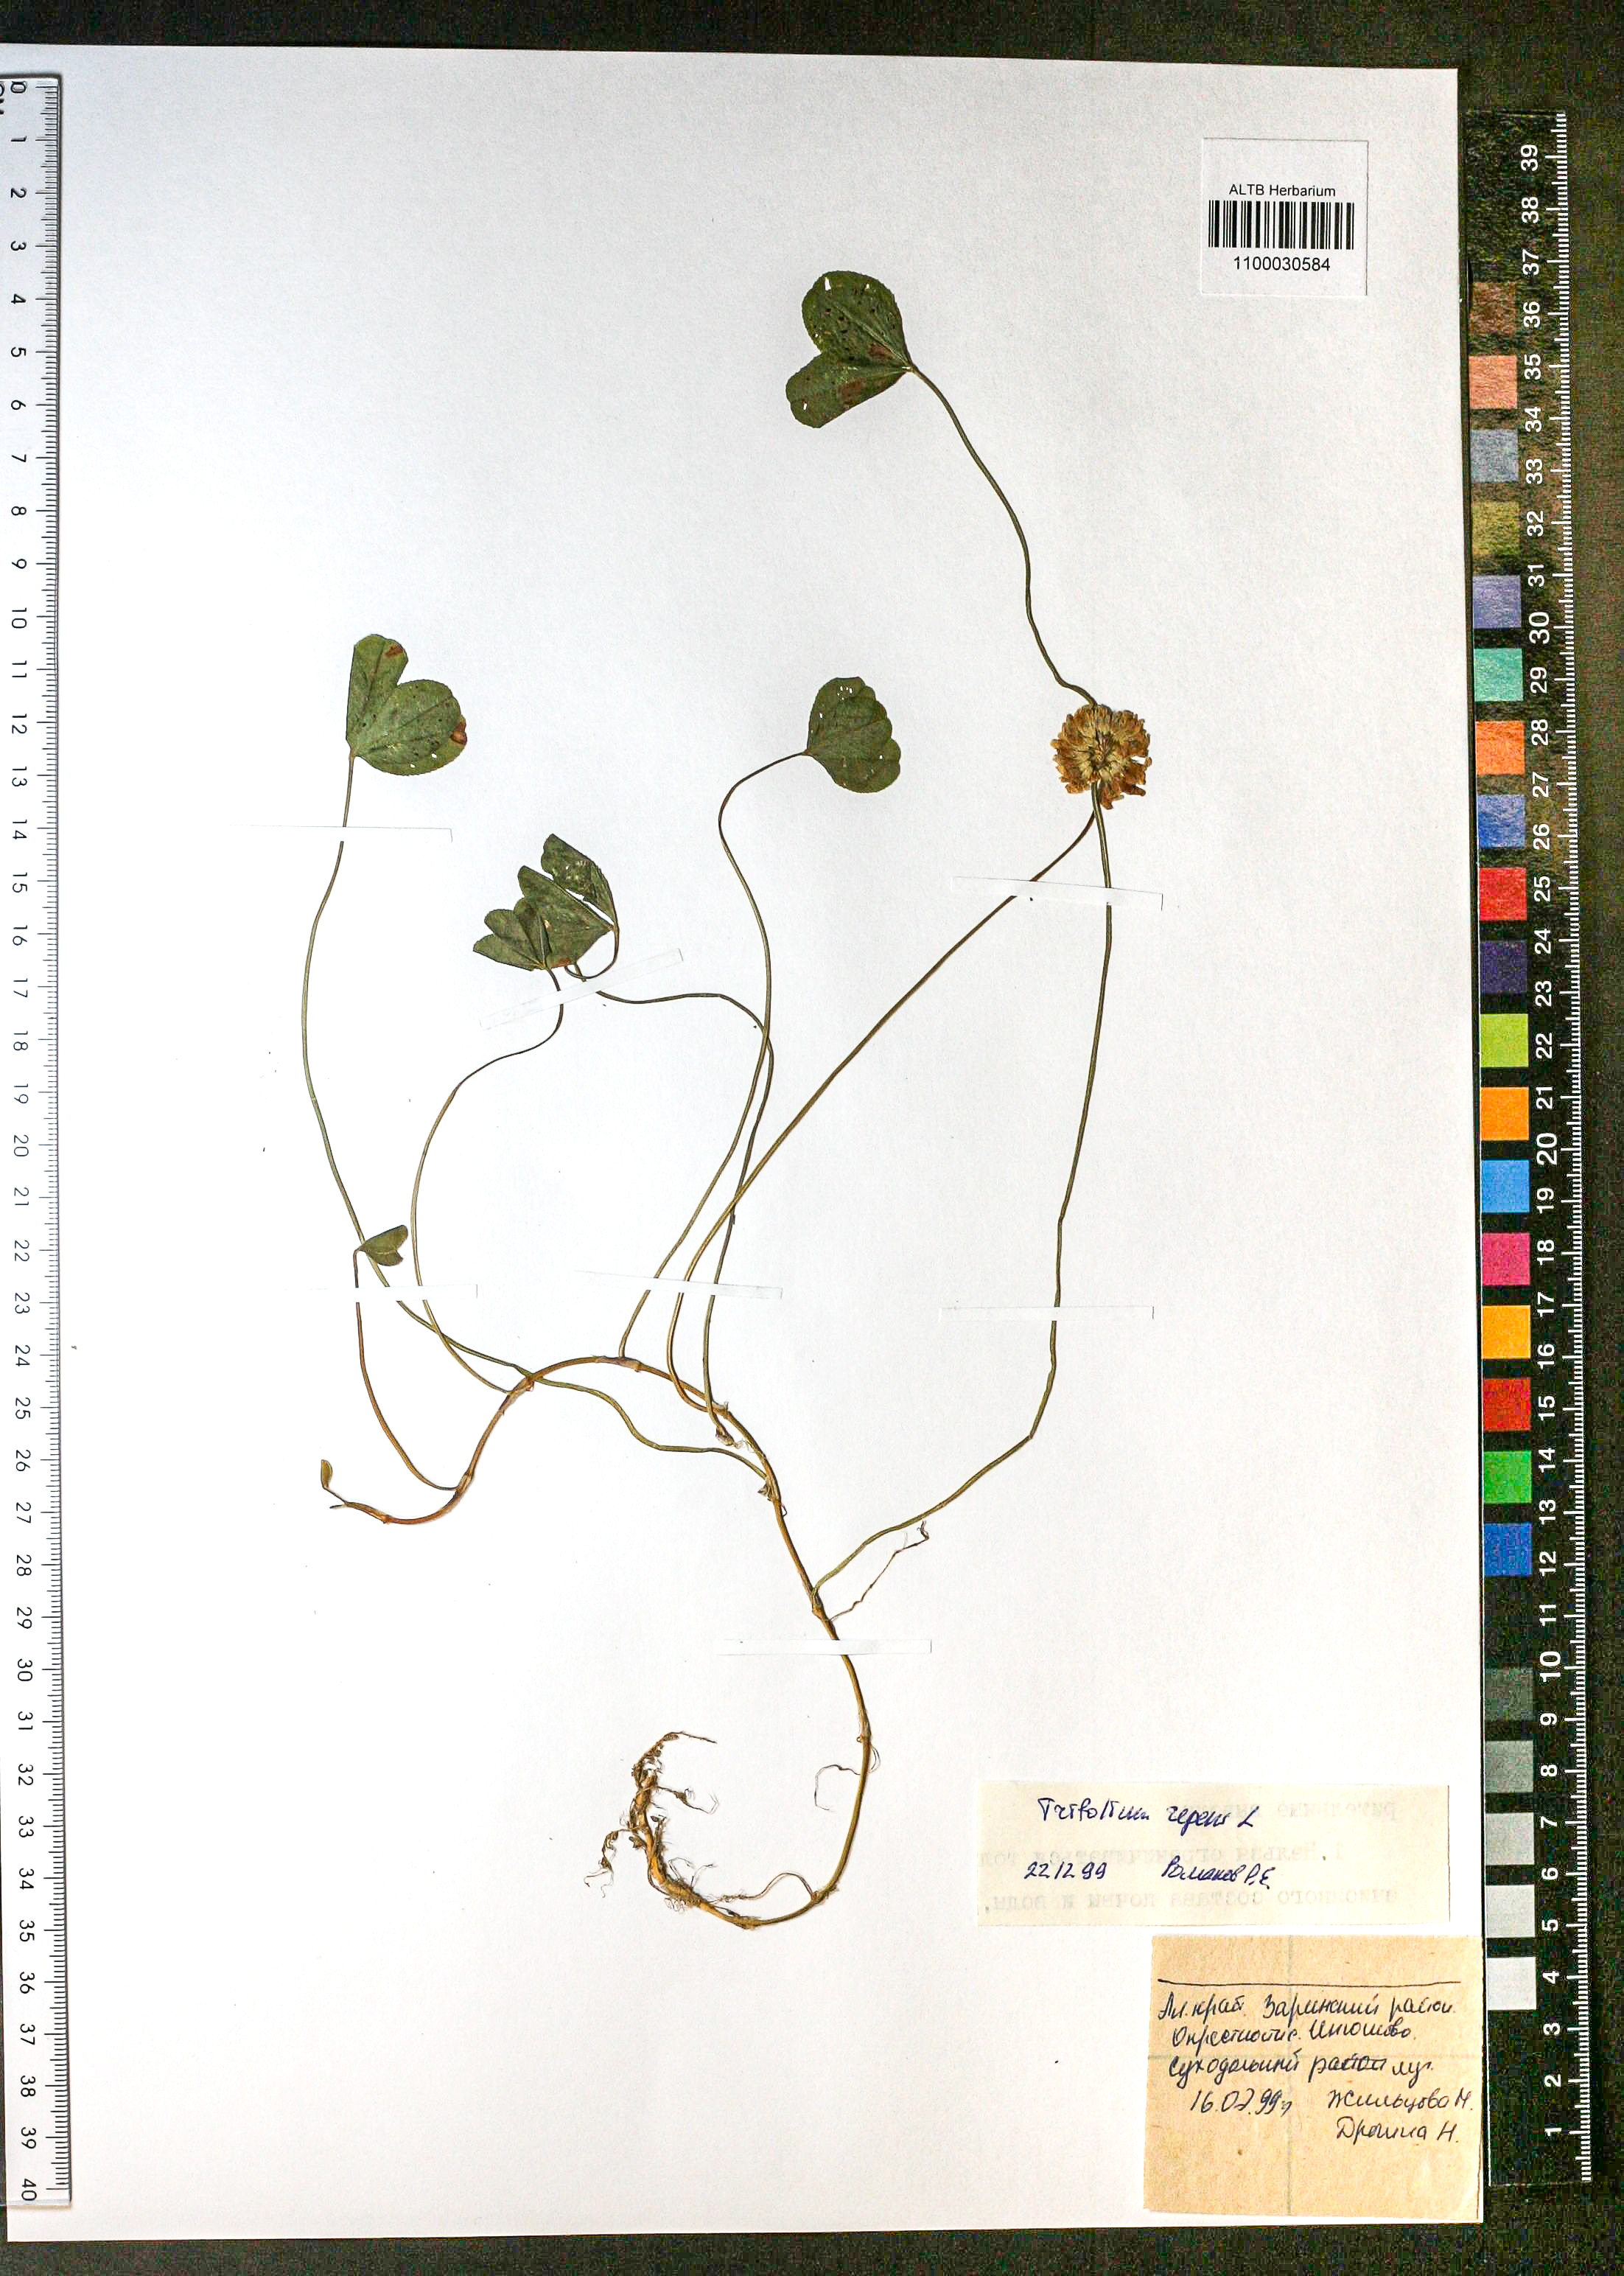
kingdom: Plantae
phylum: Tracheophyta
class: Magnoliopsida
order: Fabales
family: Fabaceae
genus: Trifolium
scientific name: Trifolium repens
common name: White clover
